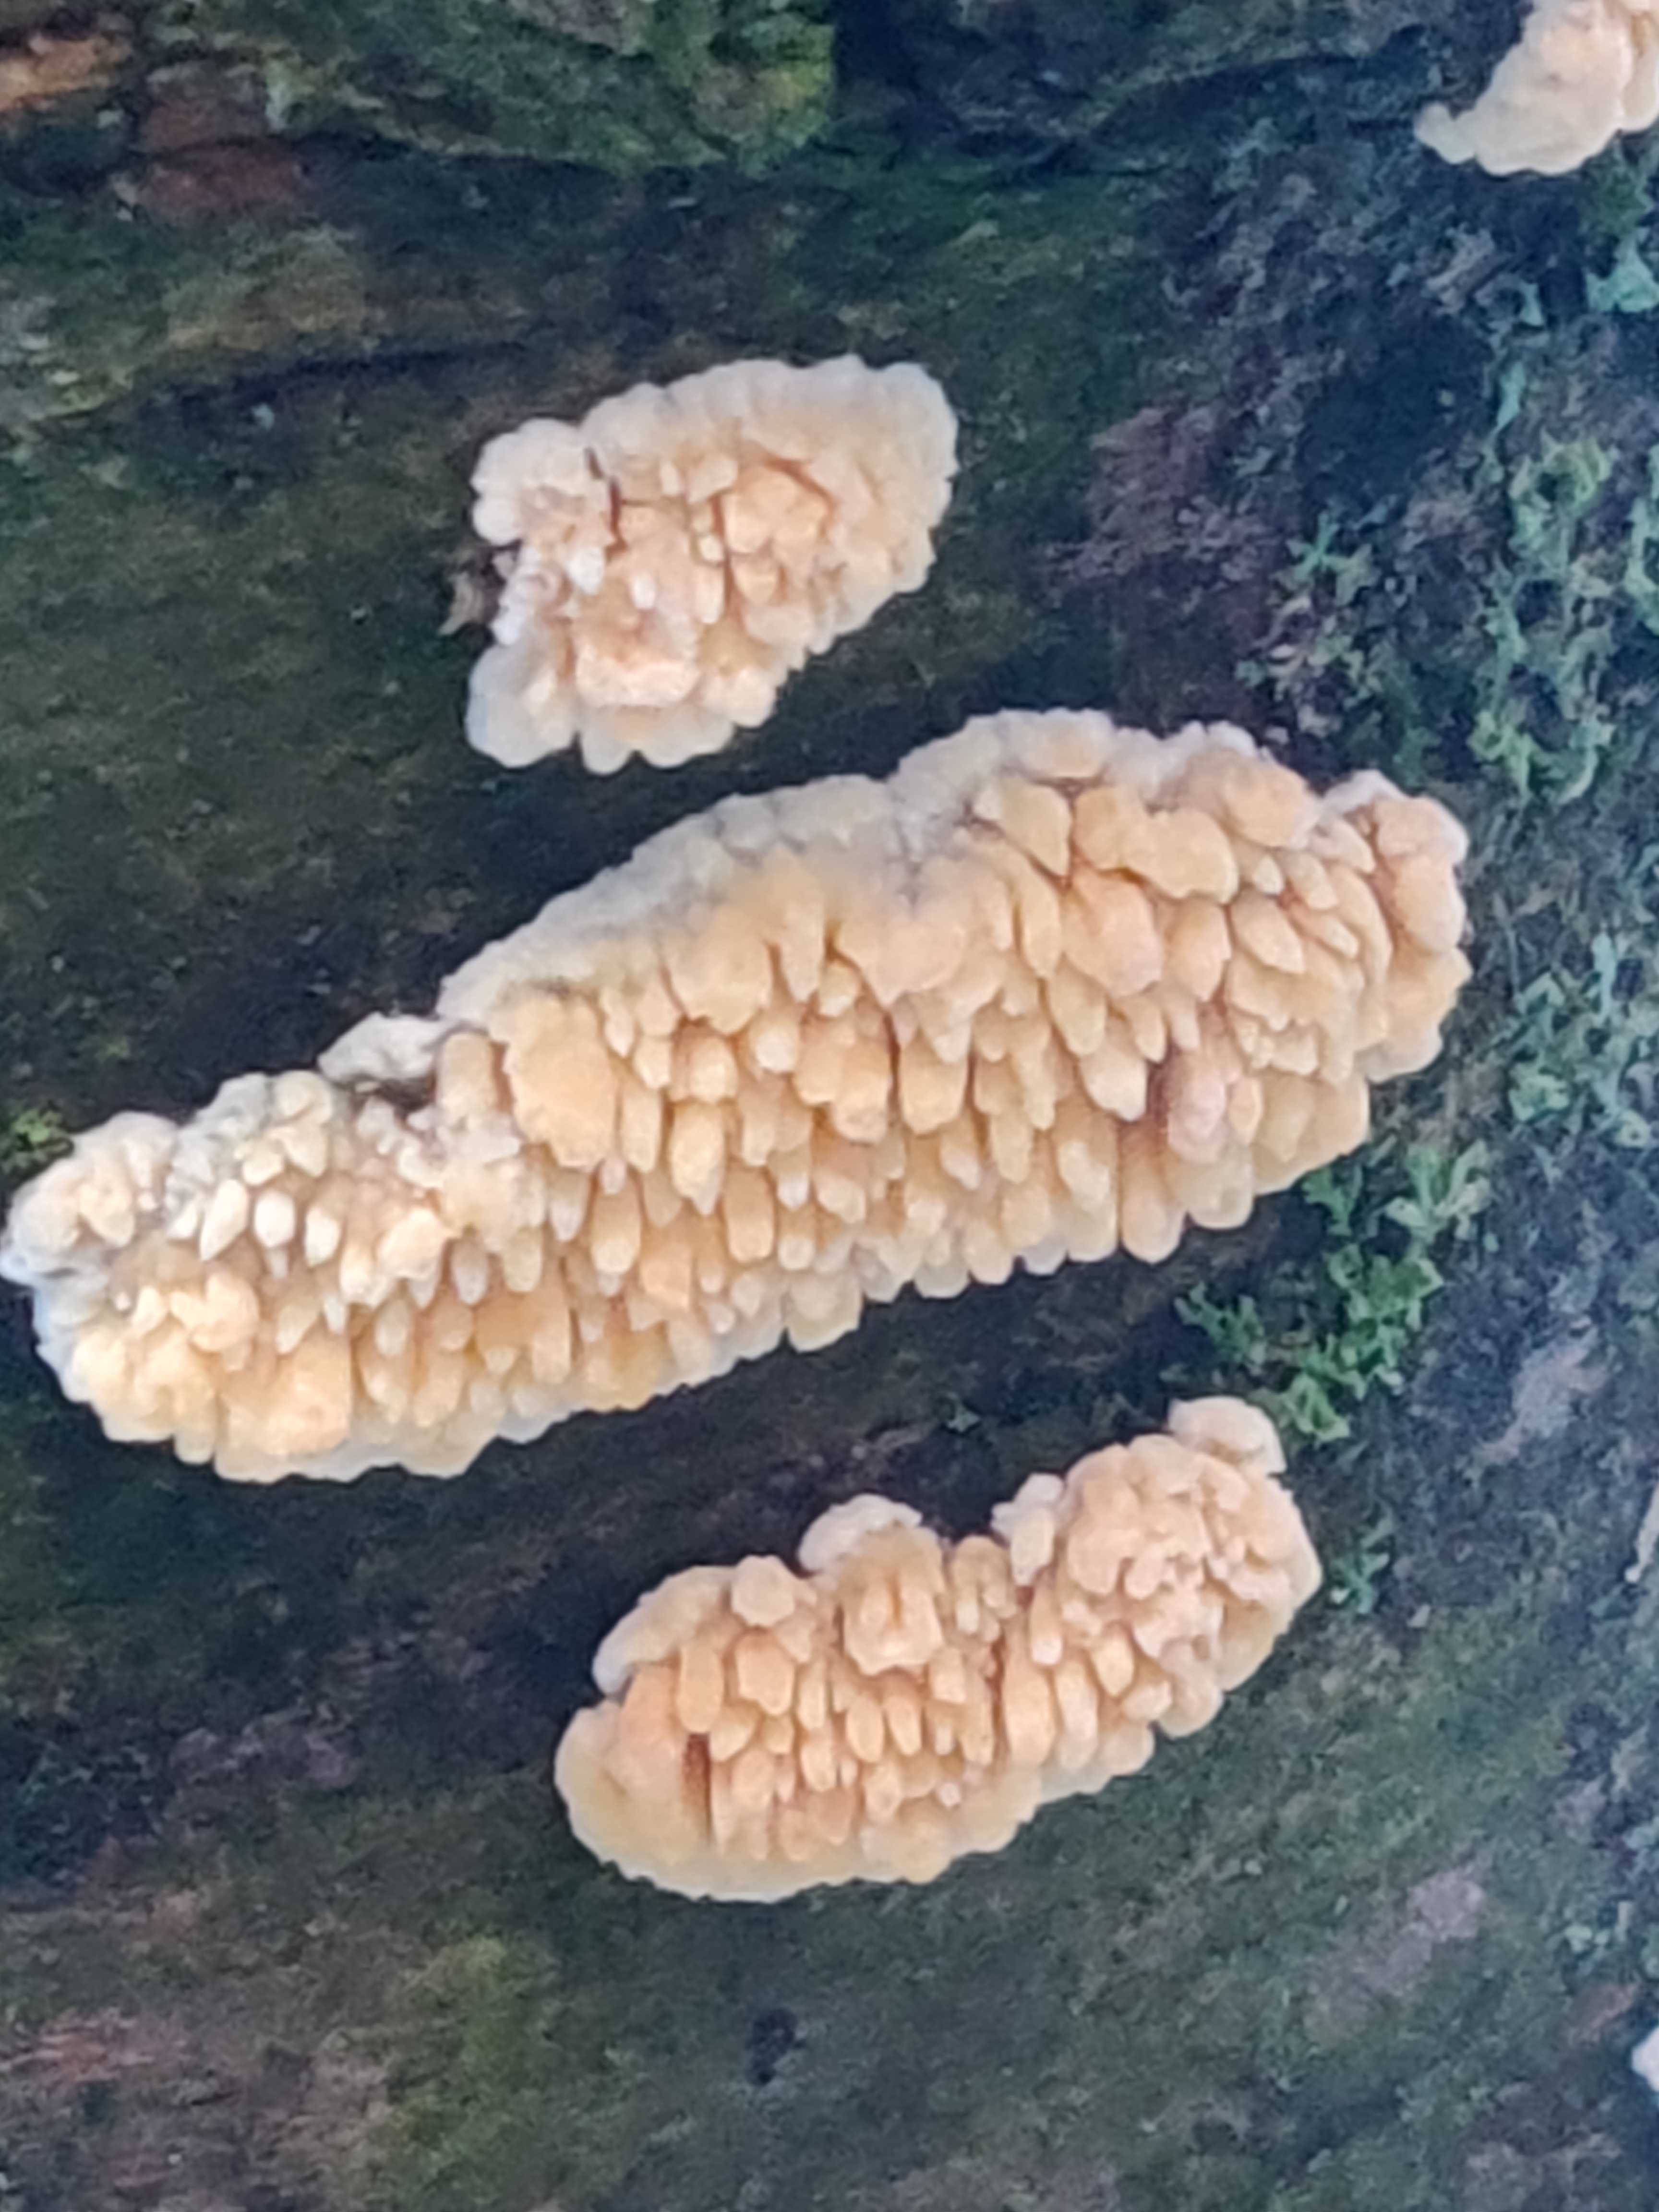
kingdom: Fungi
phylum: Basidiomycota
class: Agaricomycetes
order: Hymenochaetales
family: Schizoporaceae
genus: Xylodon
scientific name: Xylodon radula
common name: grovtandet kalkskind
